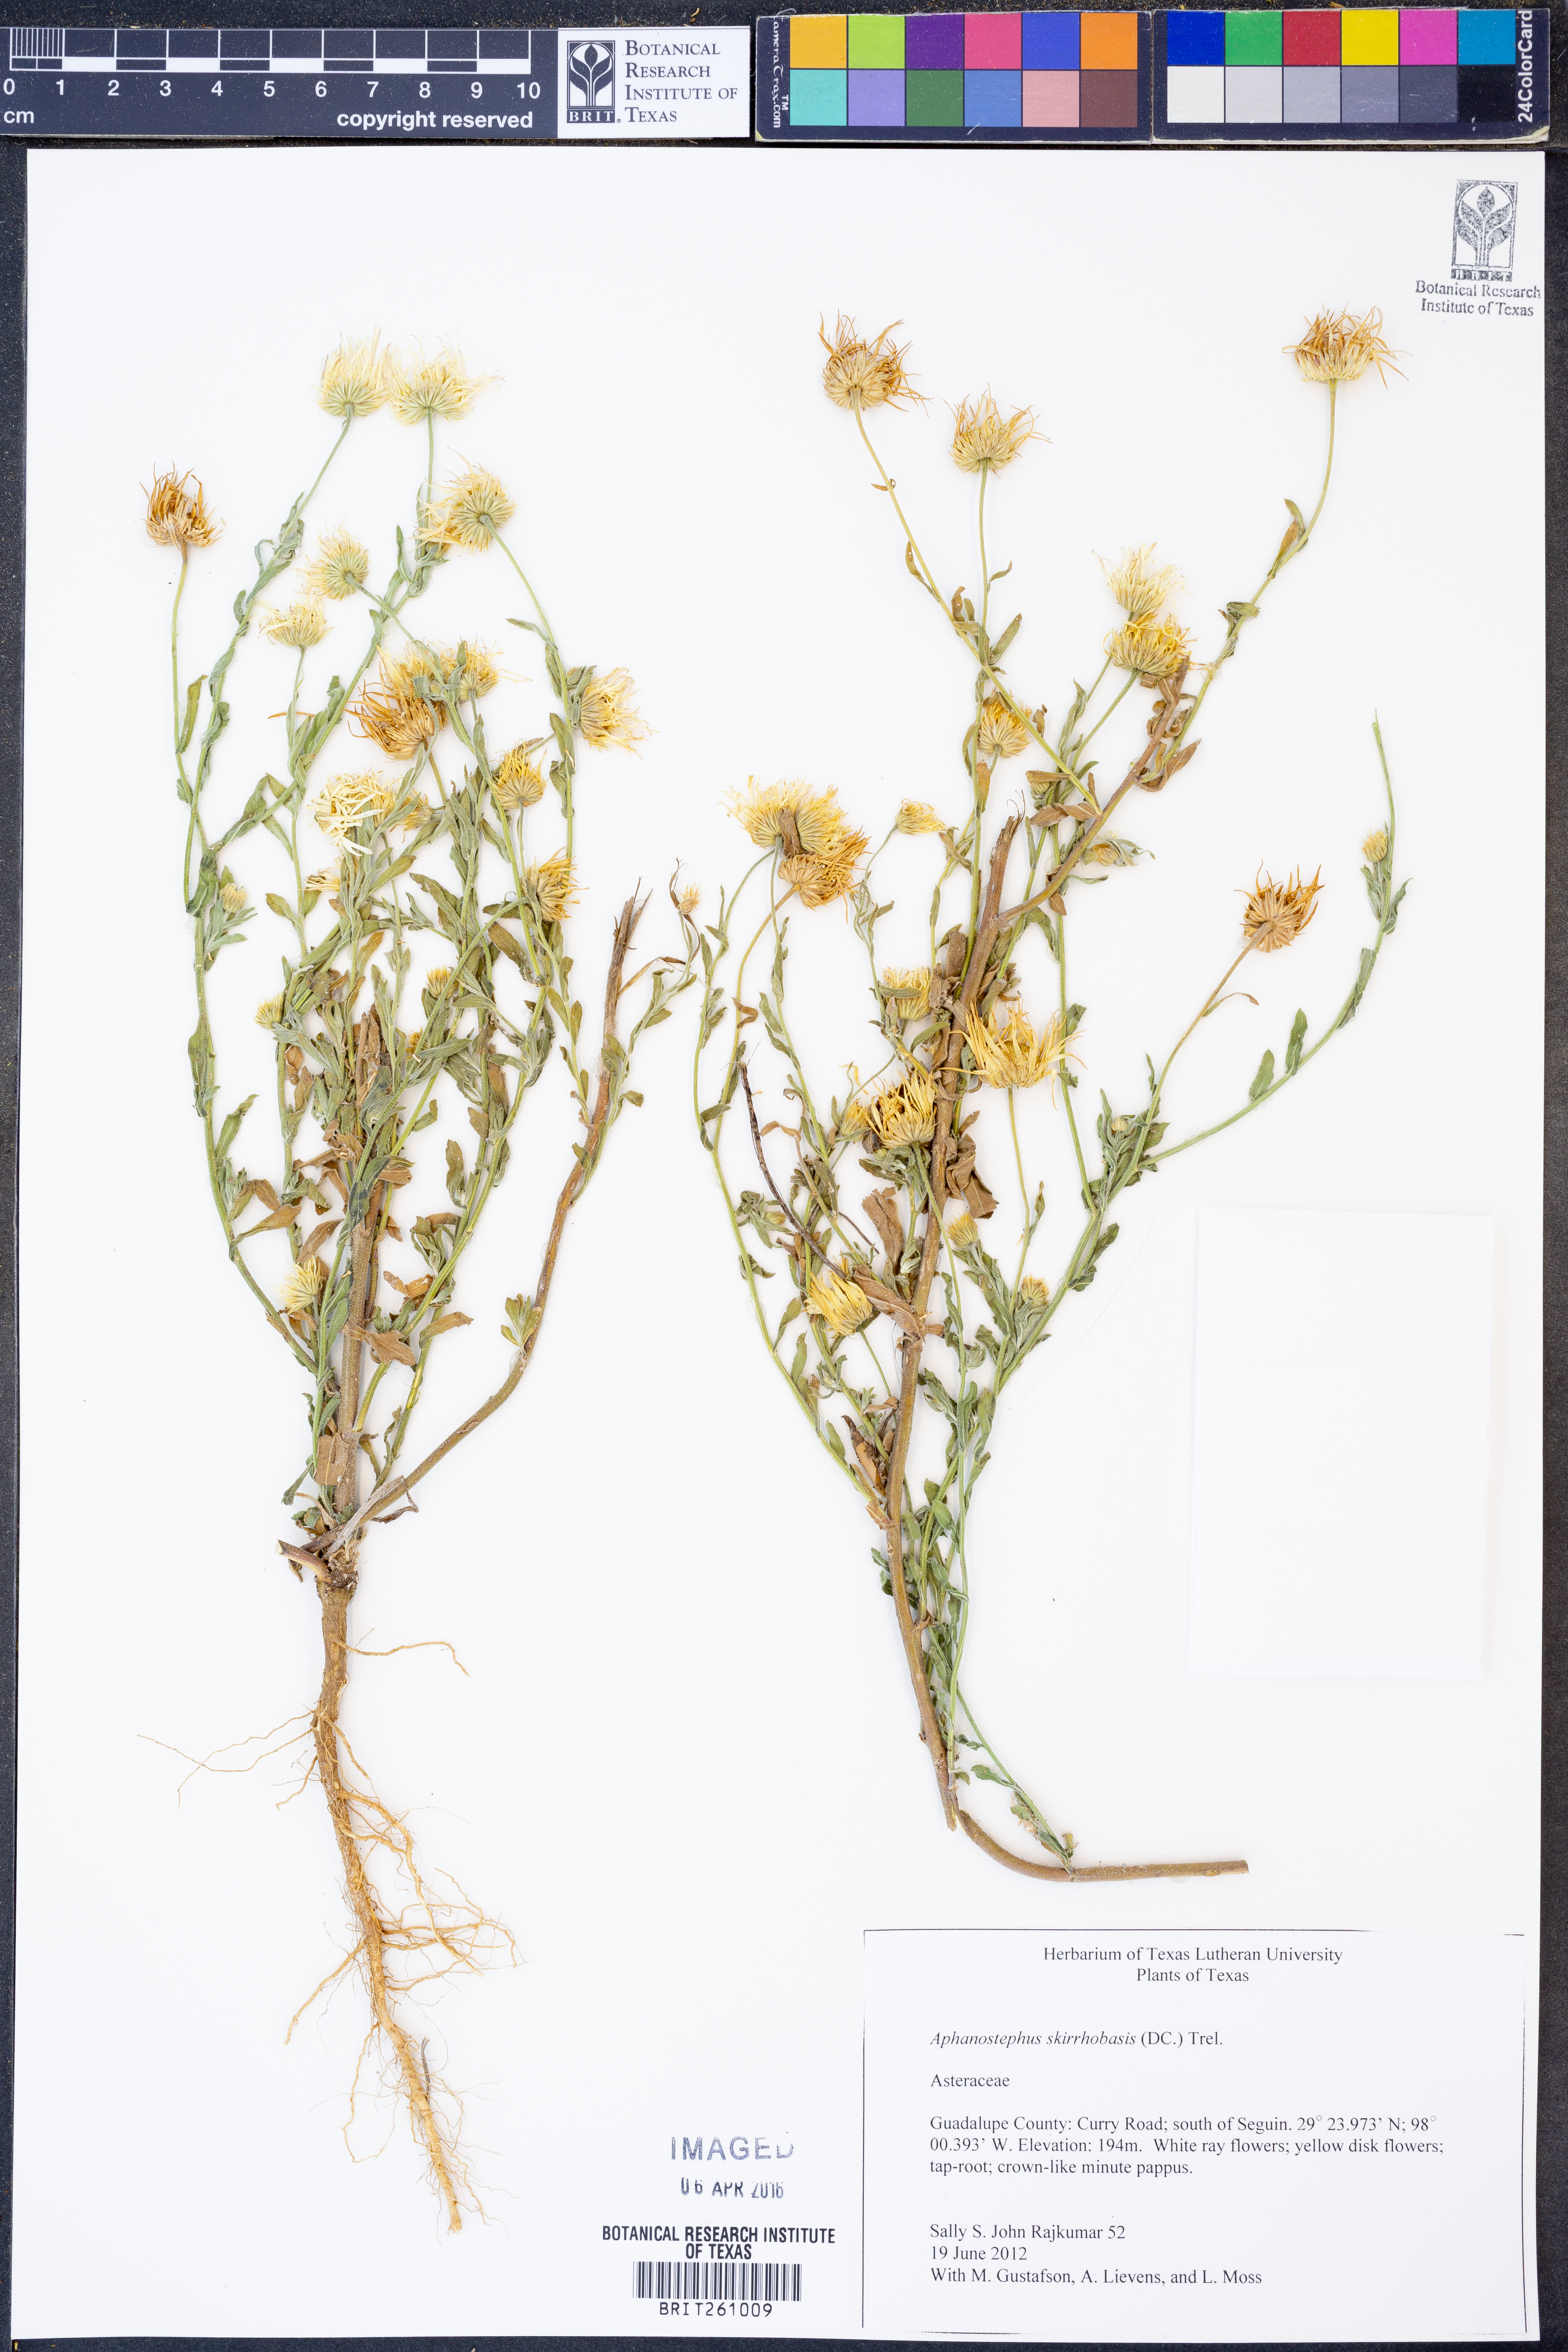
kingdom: Plantae
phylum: Tracheophyta
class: Magnoliopsida
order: Asterales
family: Asteraceae
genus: Aphanostephus
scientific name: Aphanostephus skirrhobasis
